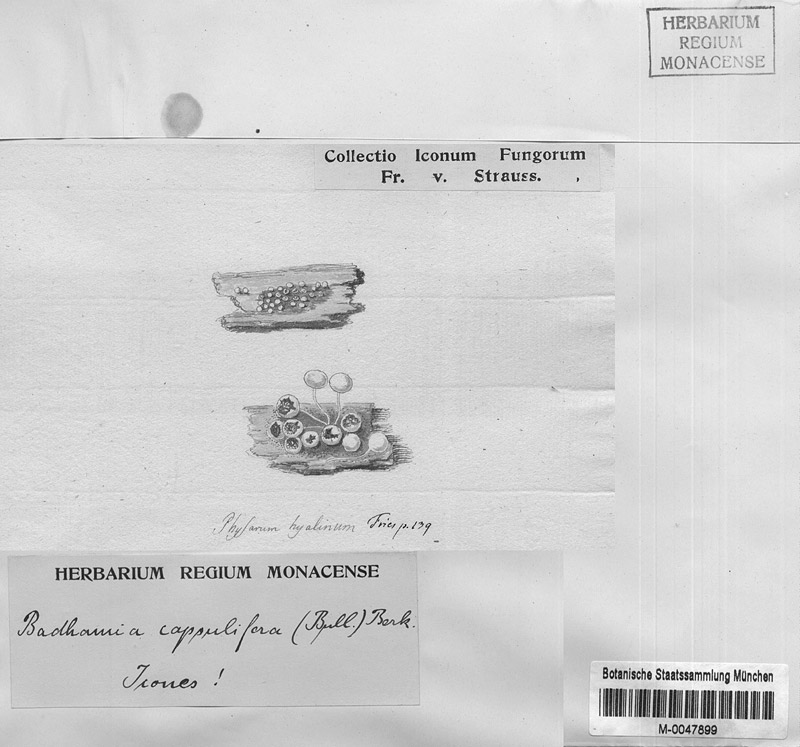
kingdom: Protozoa
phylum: Mycetozoa
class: Myxomycetes
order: Physarales
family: Physaraceae
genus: Badhamia
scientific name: Badhamia capsulifera
